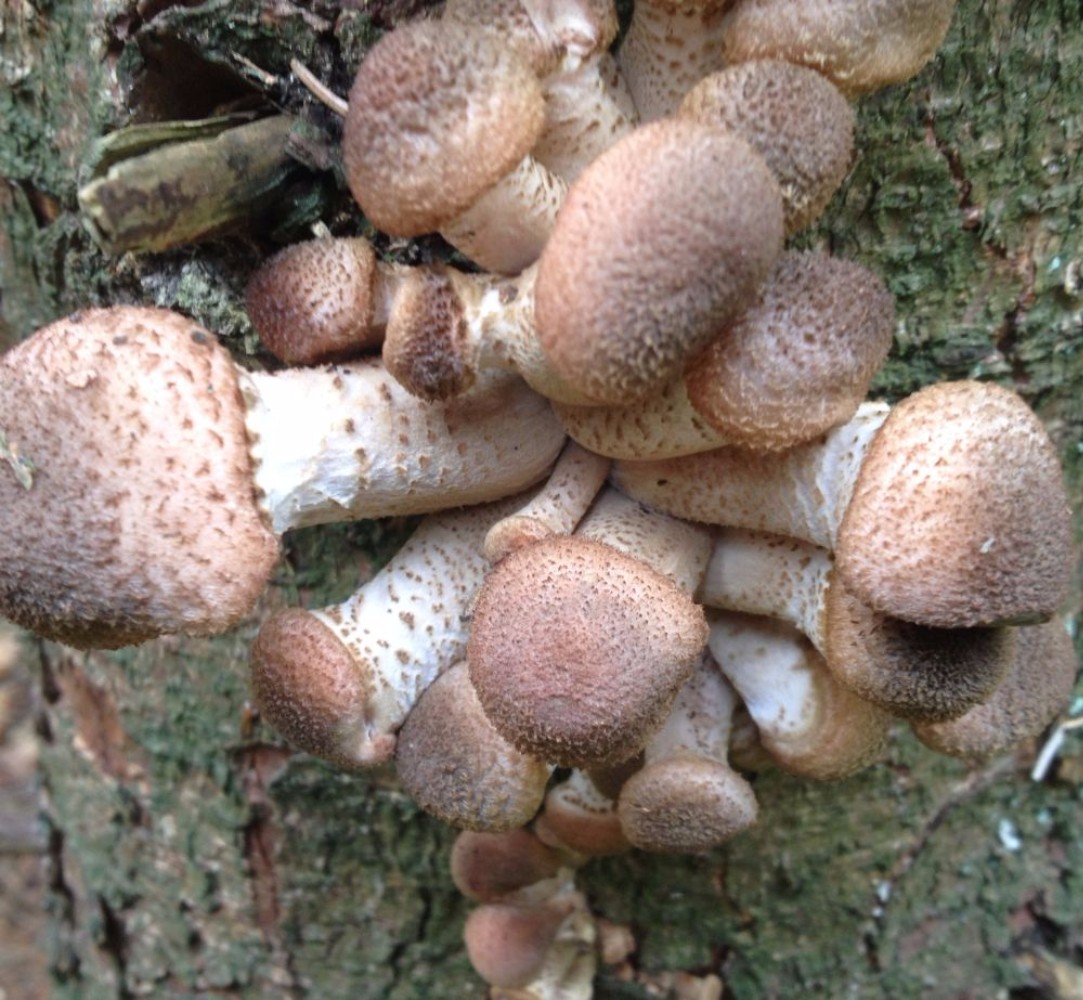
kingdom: Fungi
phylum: Basidiomycota
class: Agaricomycetes
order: Agaricales
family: Physalacriaceae
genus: Armillaria
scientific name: Armillaria ostoyae
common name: mørk honningsvamp
